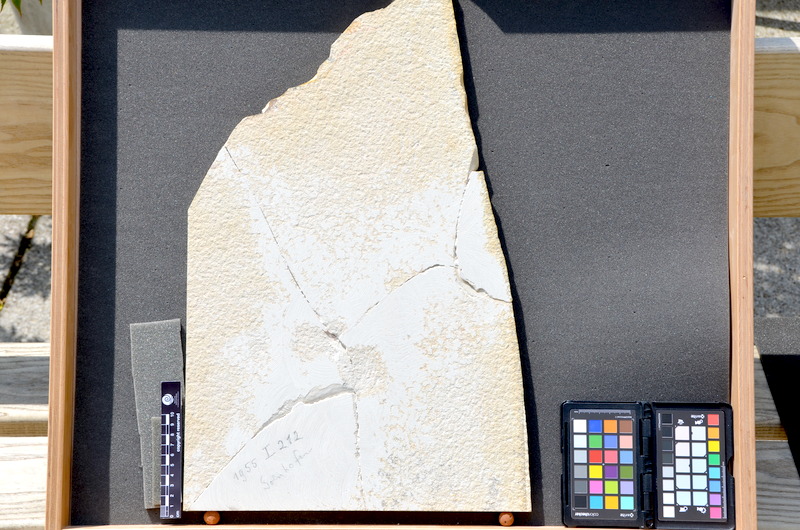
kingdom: Animalia
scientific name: Animalia
